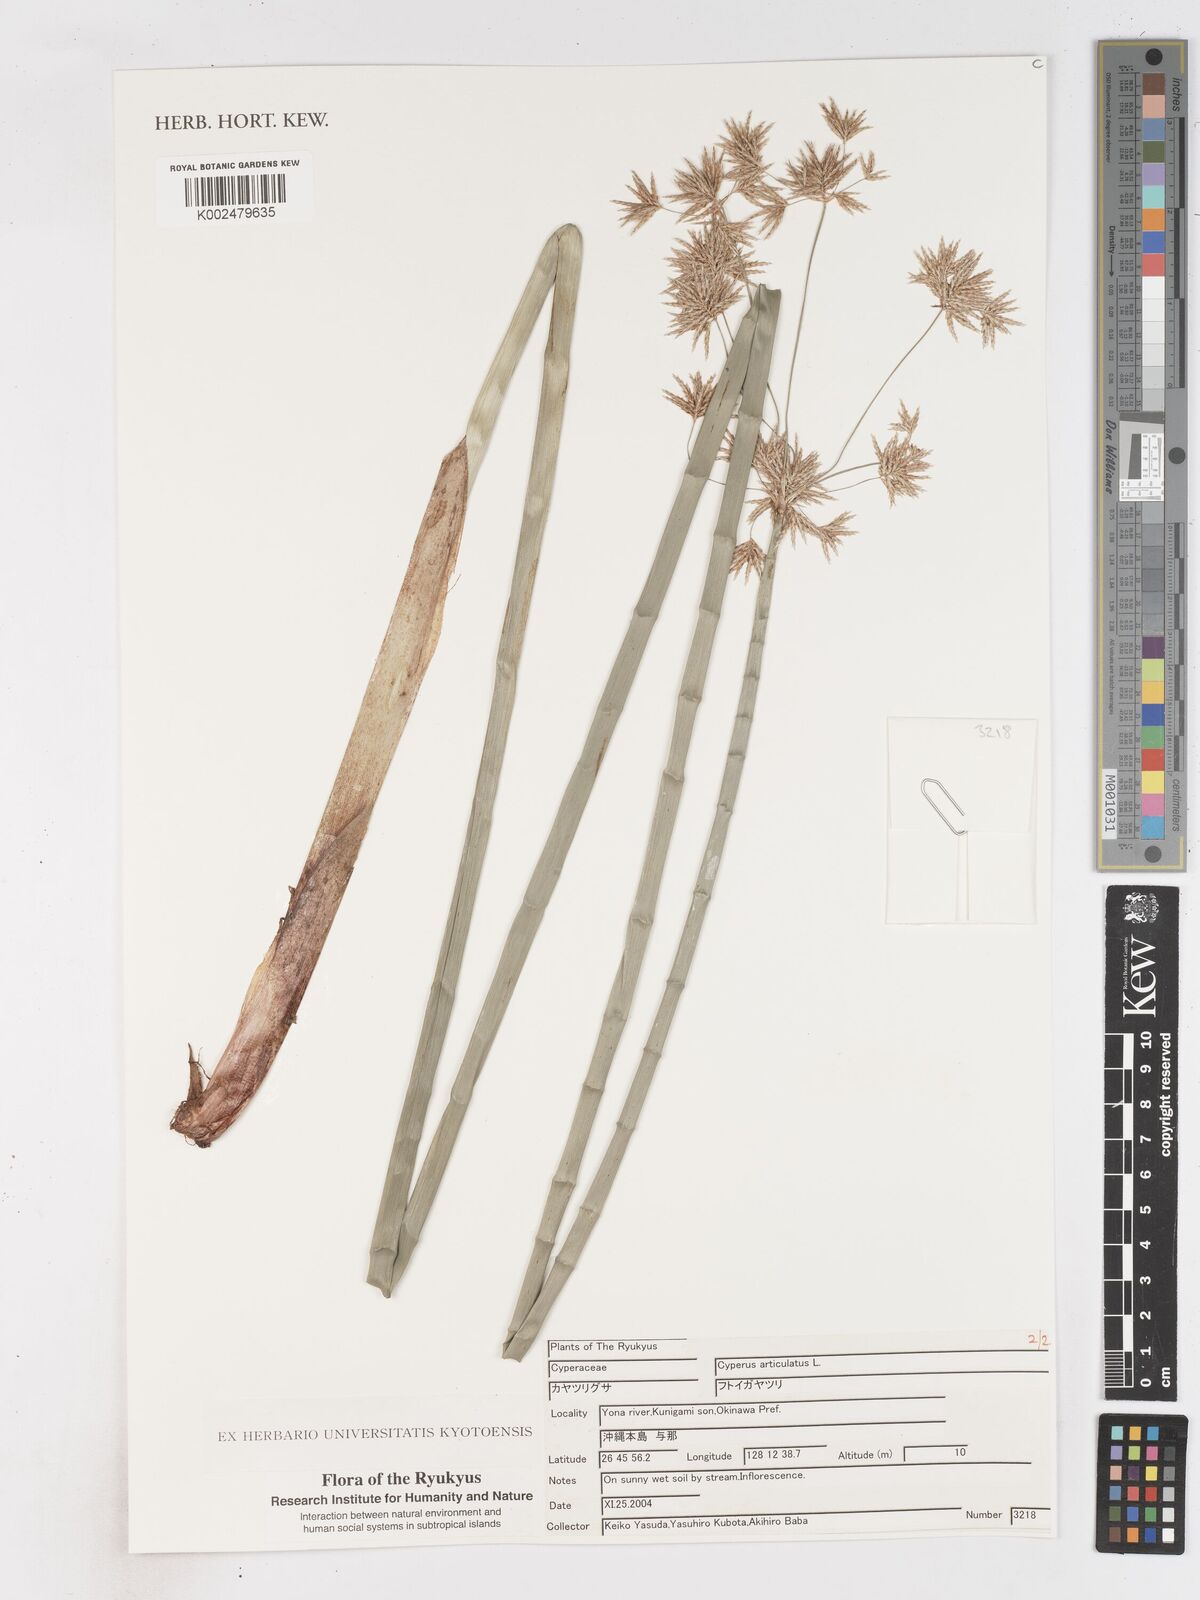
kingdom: Plantae
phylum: Tracheophyta
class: Liliopsida
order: Poales
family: Cyperaceae
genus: Cyperus
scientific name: Cyperus articulatus
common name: Jointed flatsedge
